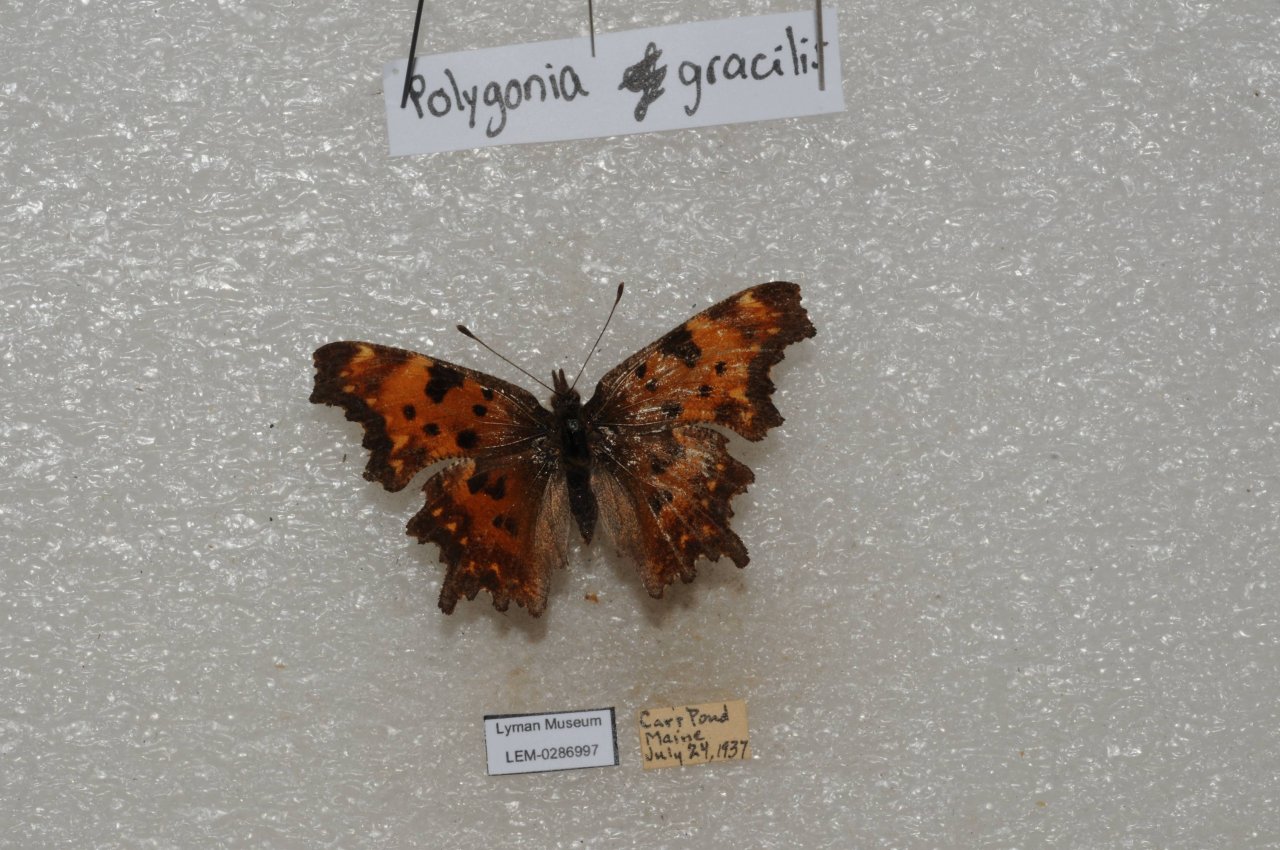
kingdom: Animalia
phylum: Arthropoda
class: Insecta
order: Lepidoptera
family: Nymphalidae
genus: Polygonia
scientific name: Polygonia gracilis
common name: Hoary Comma
